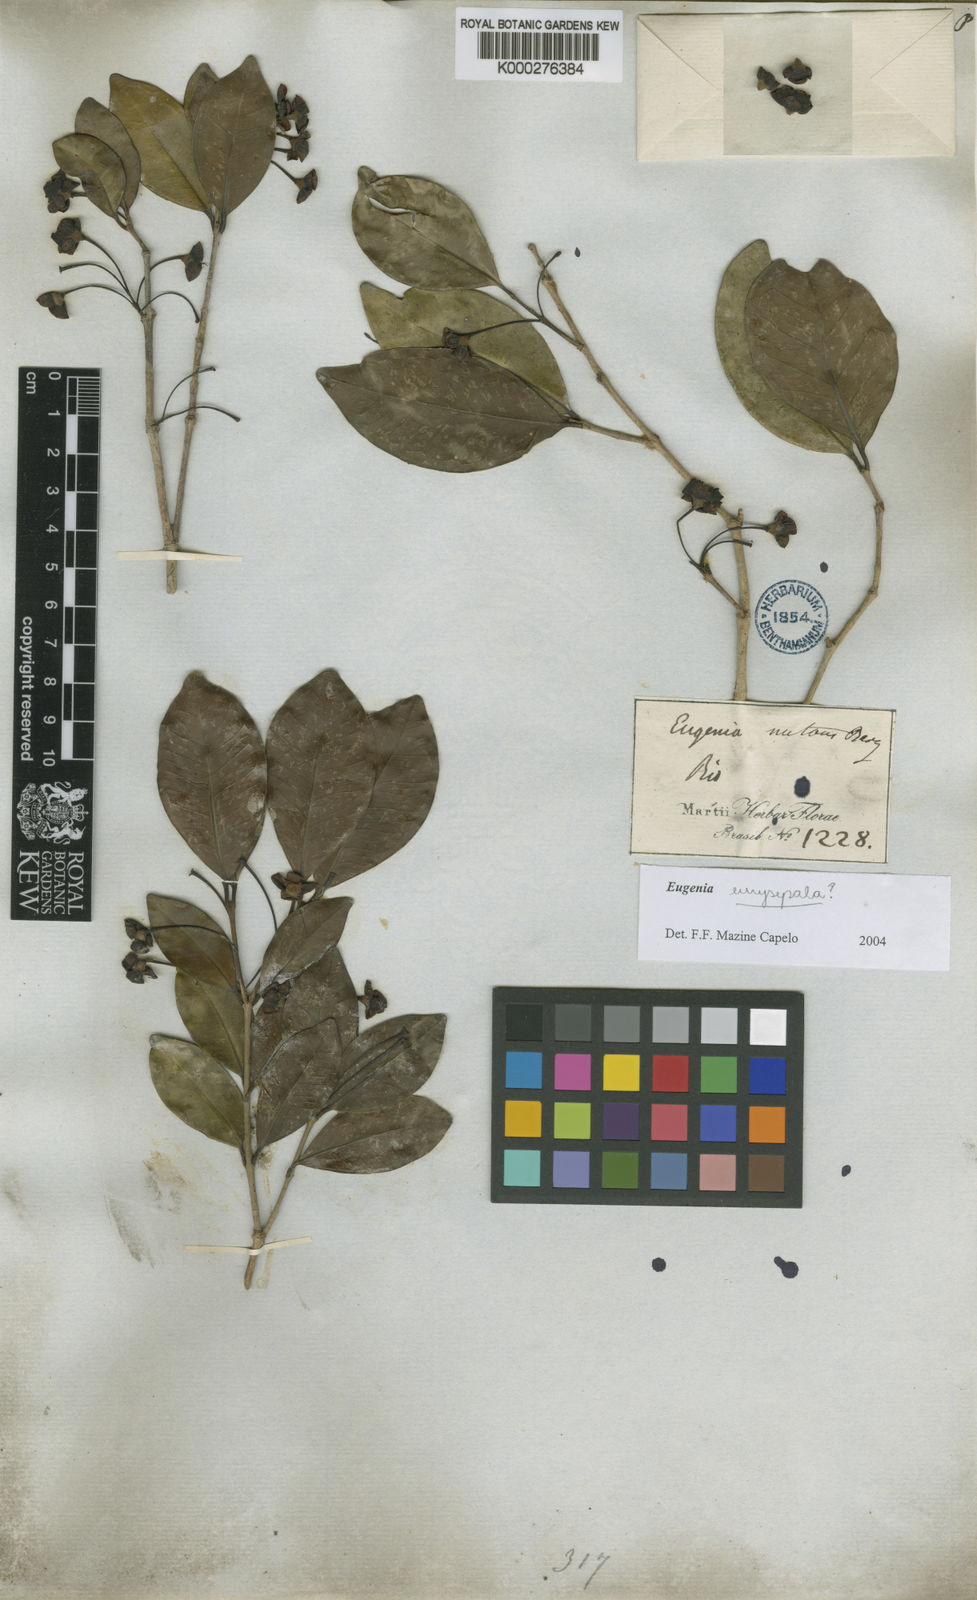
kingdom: Plantae
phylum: Tracheophyta
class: Magnoliopsida
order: Myrtales
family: Myrtaceae
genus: Eugenia
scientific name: Eugenia nutans
